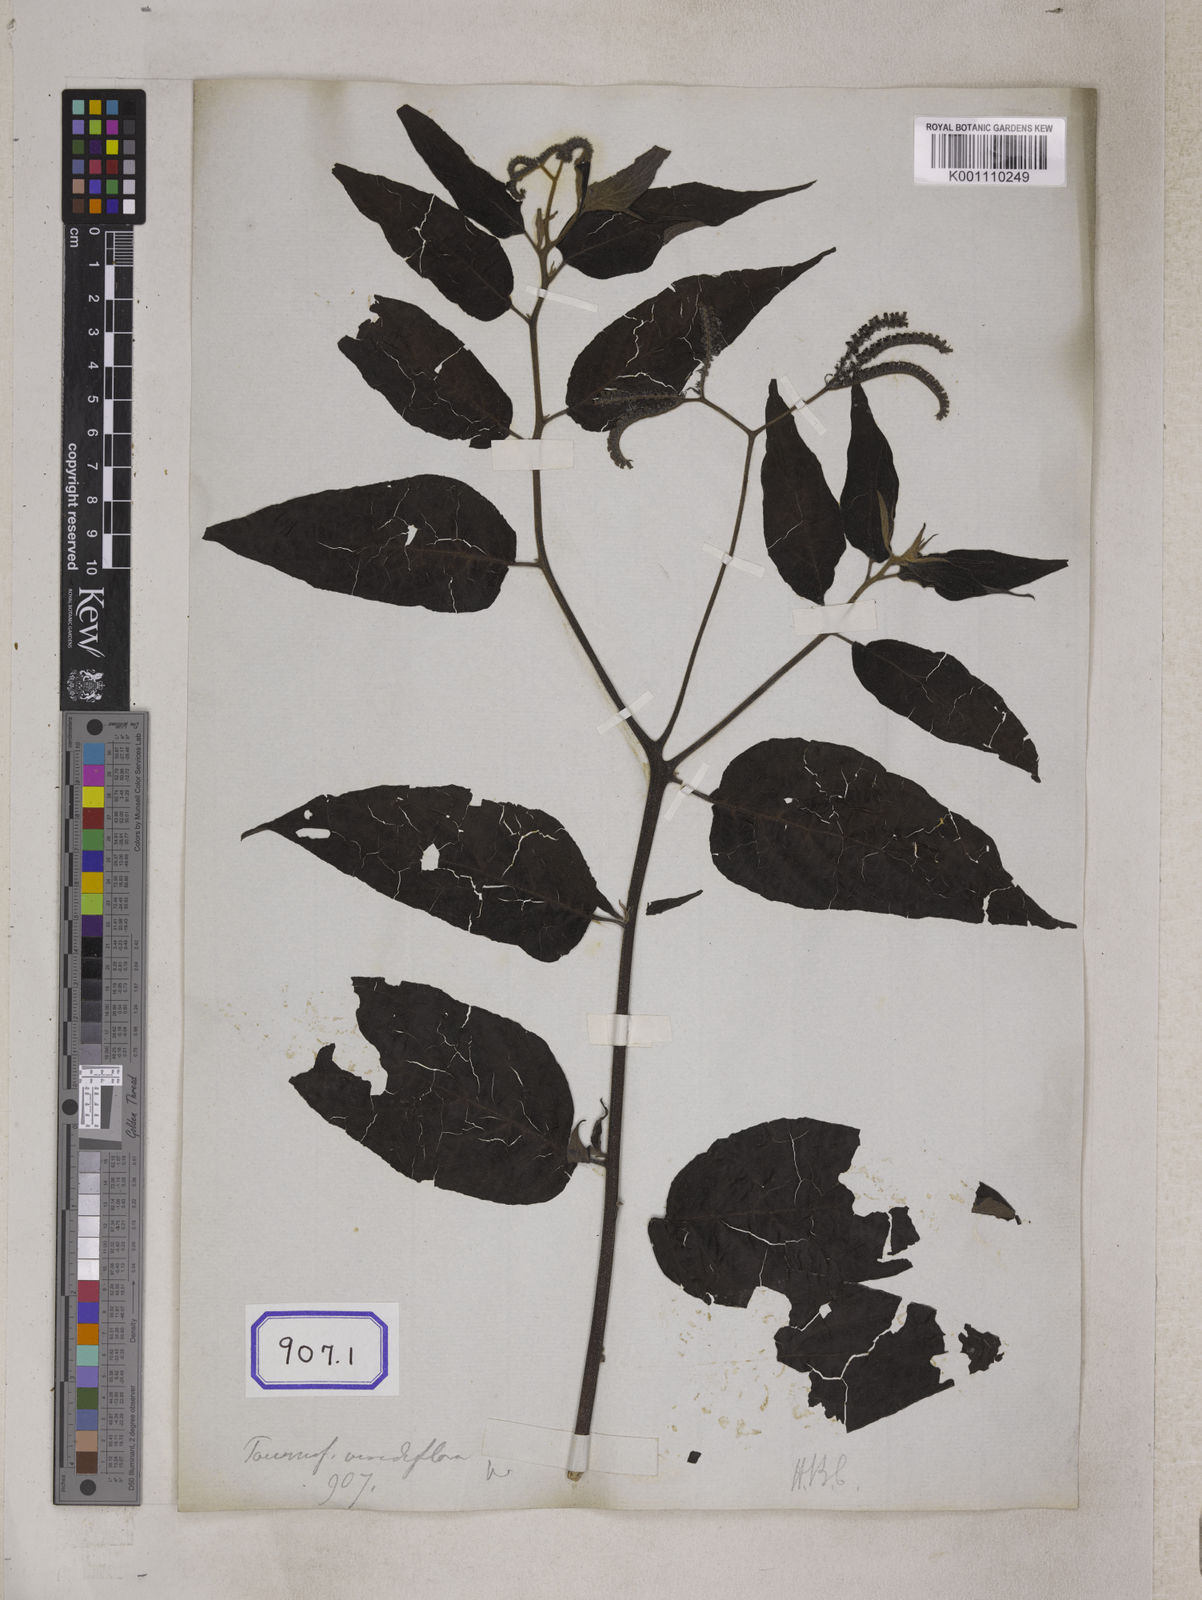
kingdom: Plantae
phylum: Tracheophyta
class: Magnoliopsida
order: Boraginales
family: Heliotropiaceae
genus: Tournefortia
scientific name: Tournefortia montana
